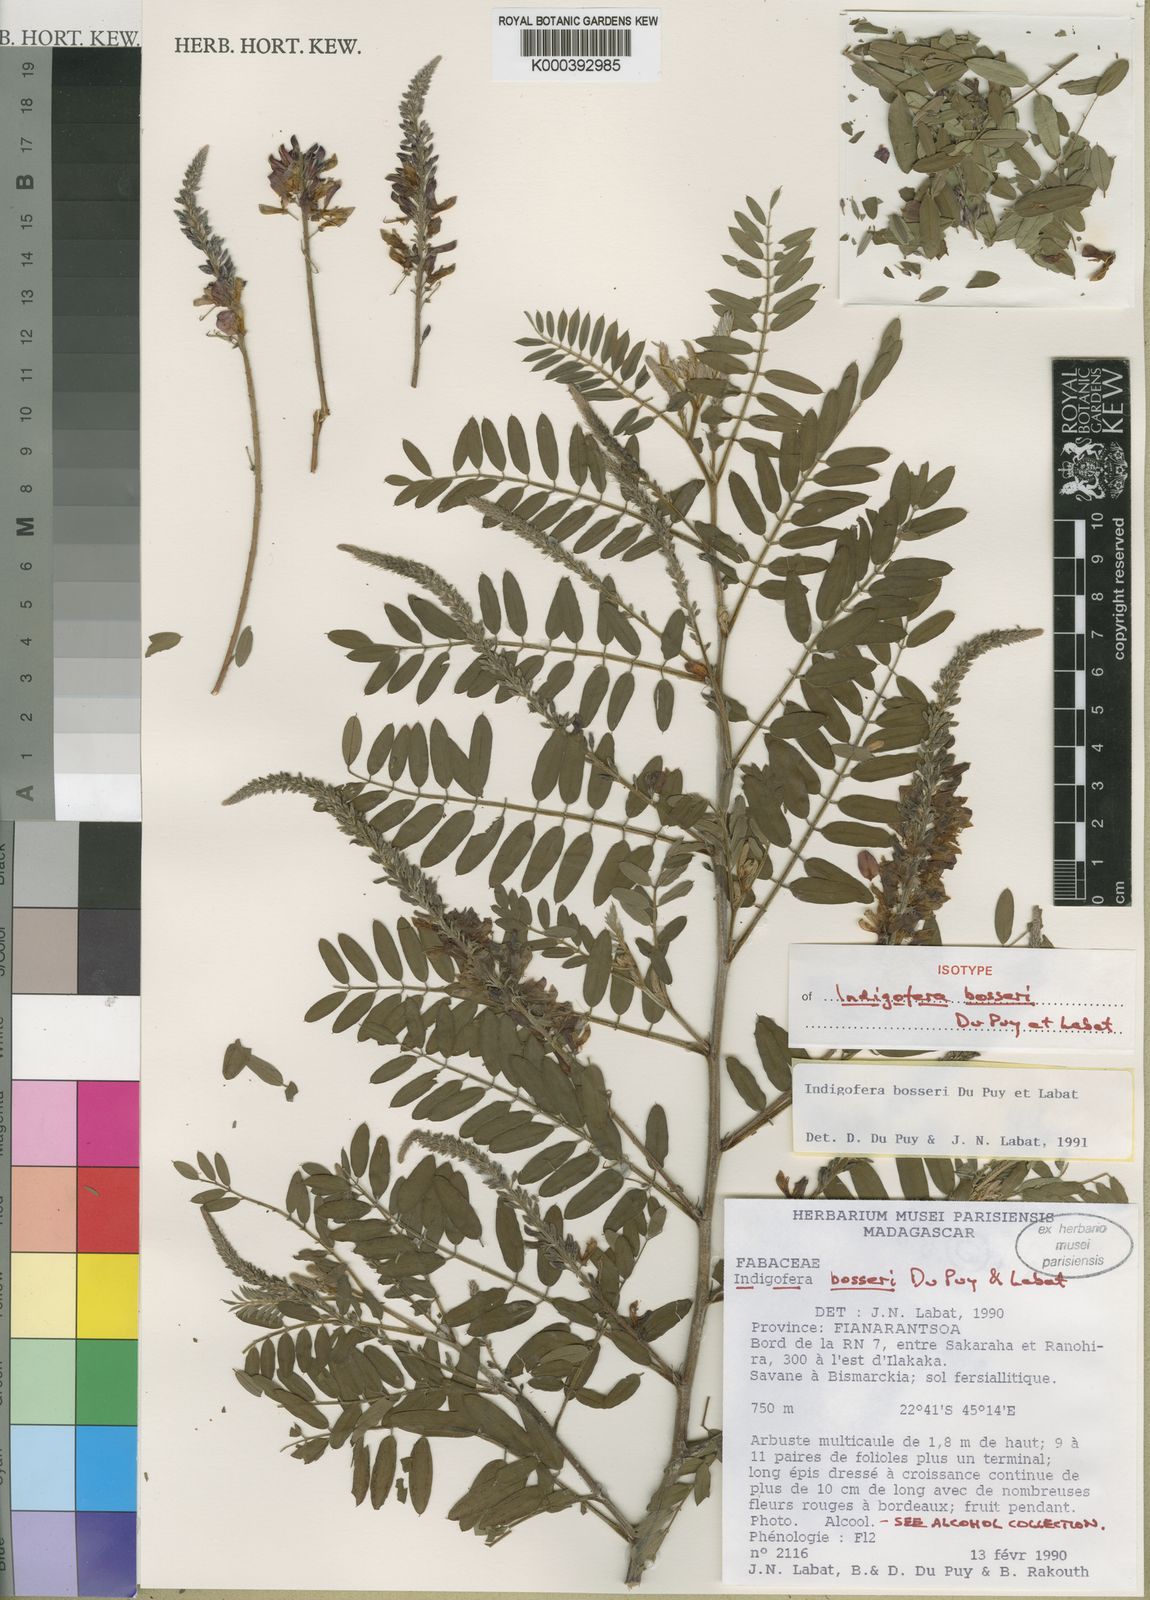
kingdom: Plantae
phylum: Tracheophyta
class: Magnoliopsida
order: Fabales
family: Fabaceae
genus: Indigofera
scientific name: Indigofera bosseri
